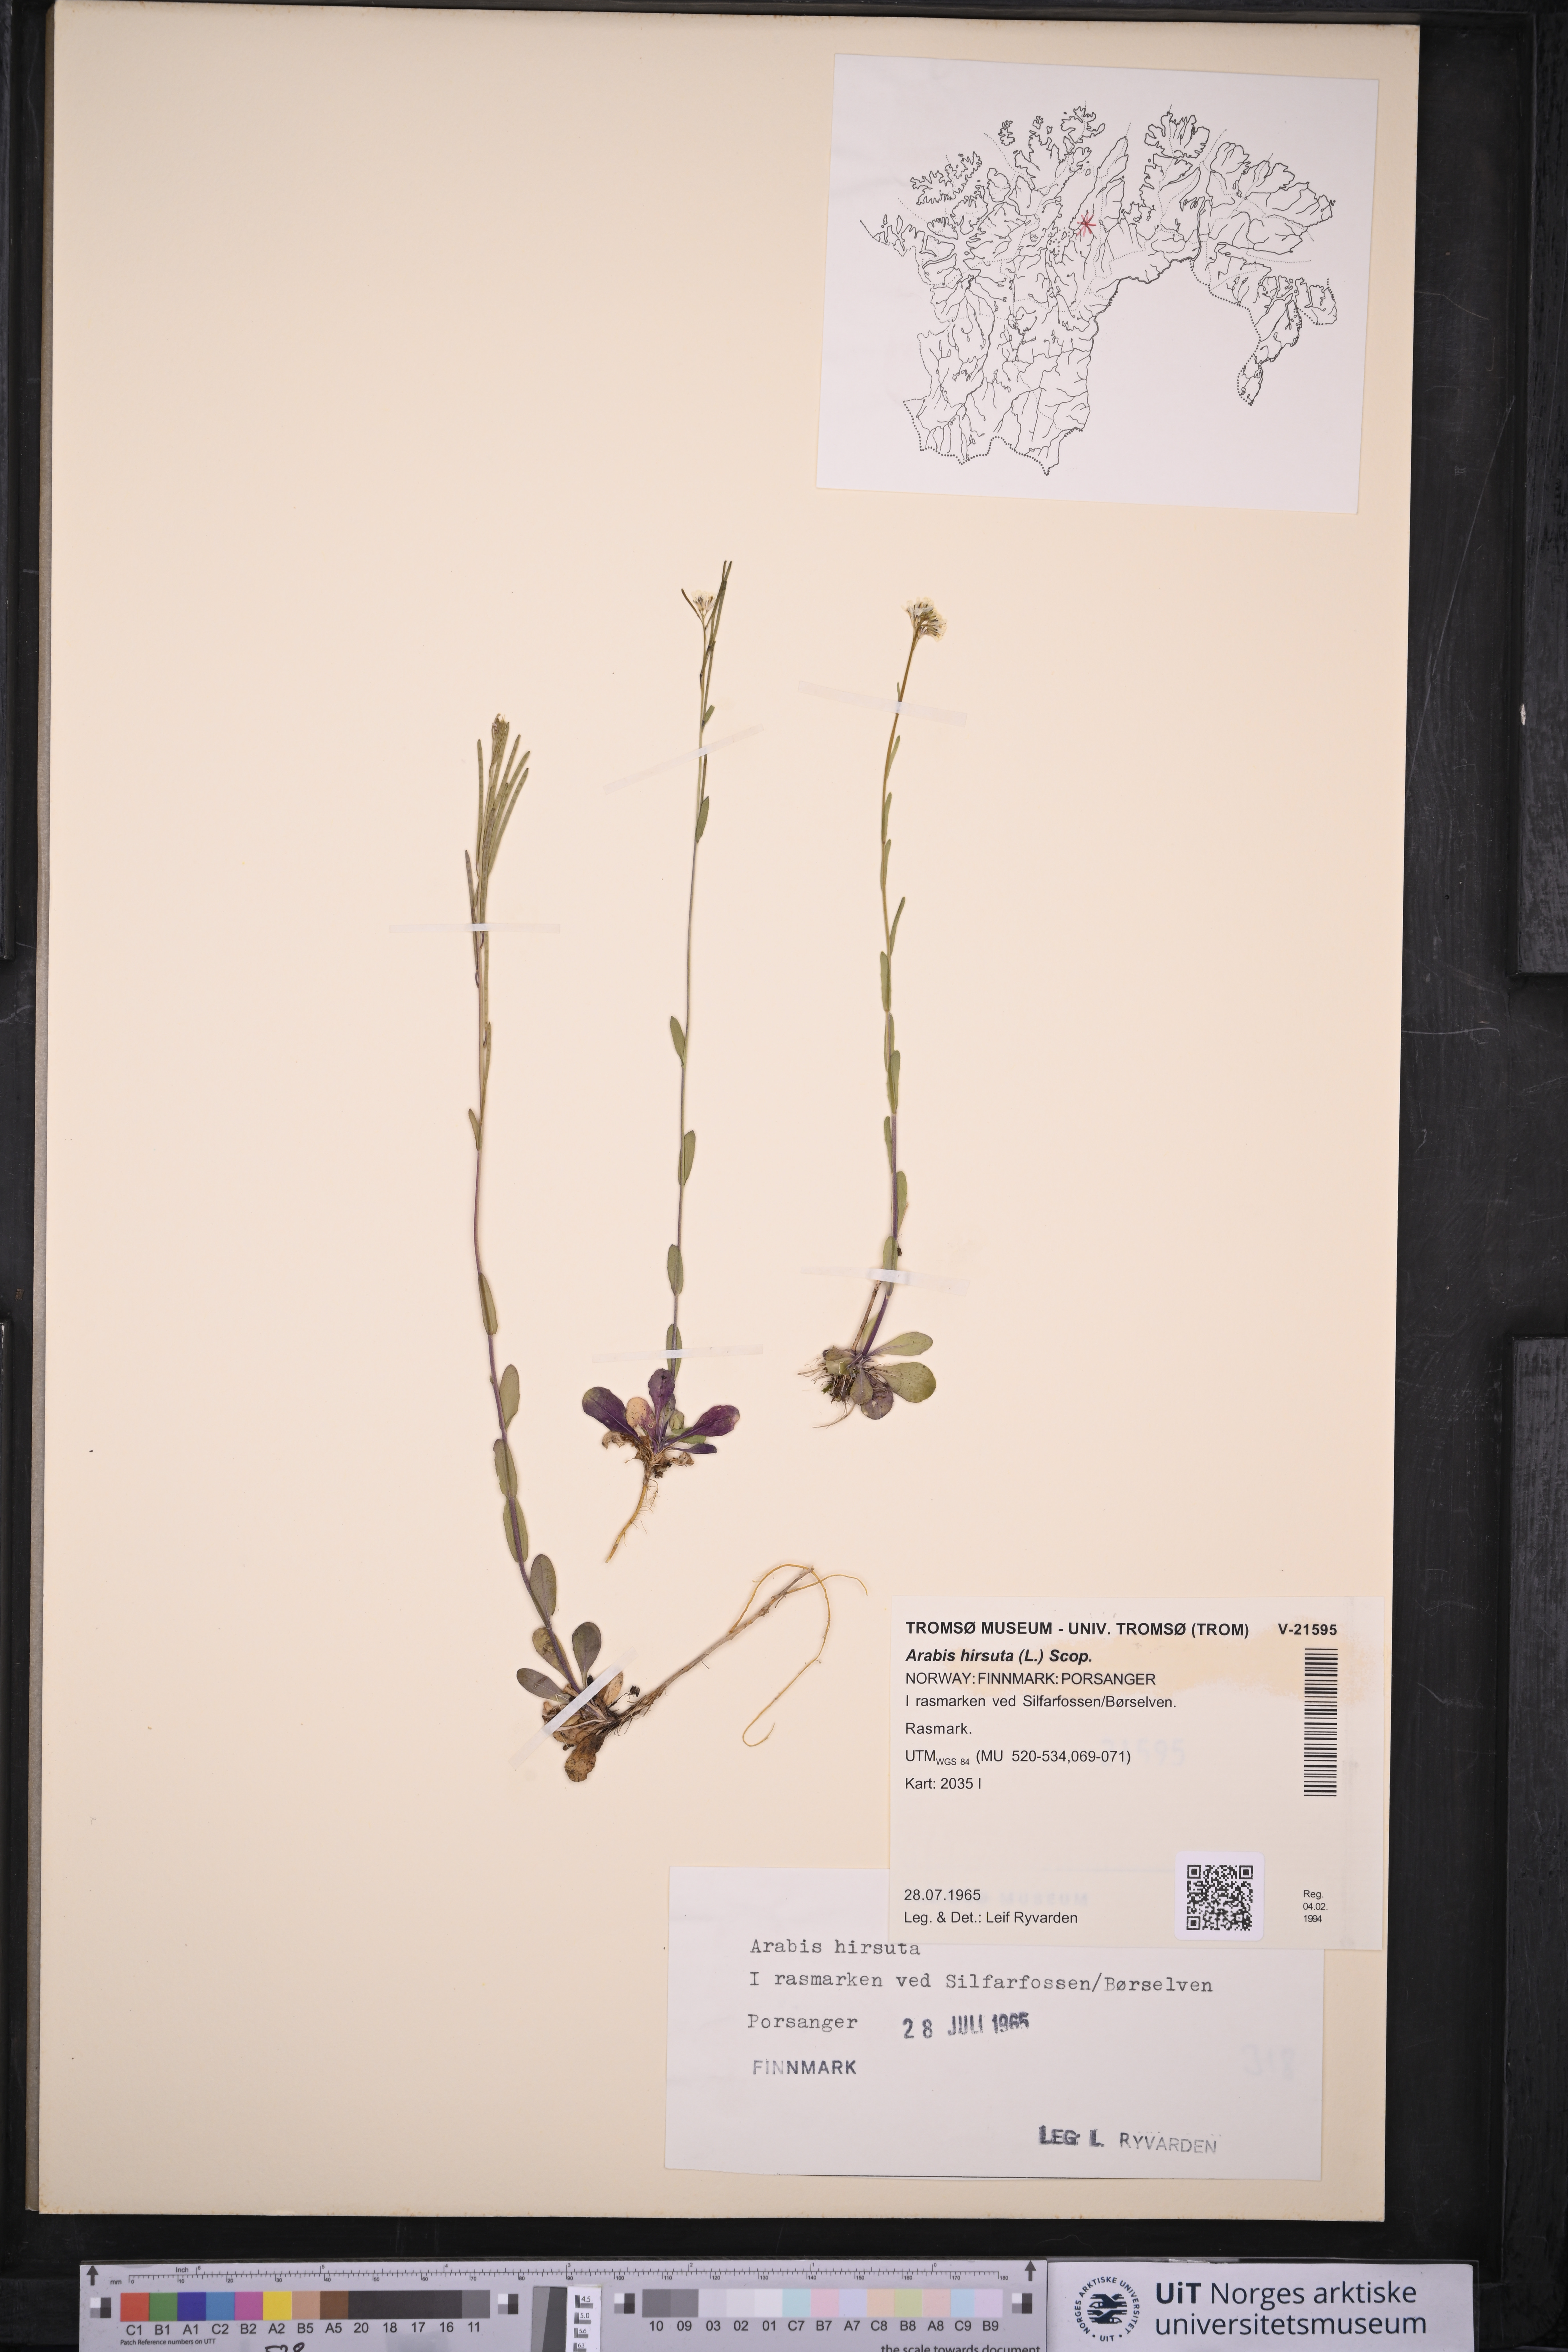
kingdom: Plantae
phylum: Tracheophyta
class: Magnoliopsida
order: Brassicales
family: Brassicaceae
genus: Arabis
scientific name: Arabis hirsuta
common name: Hairy rock-cress
